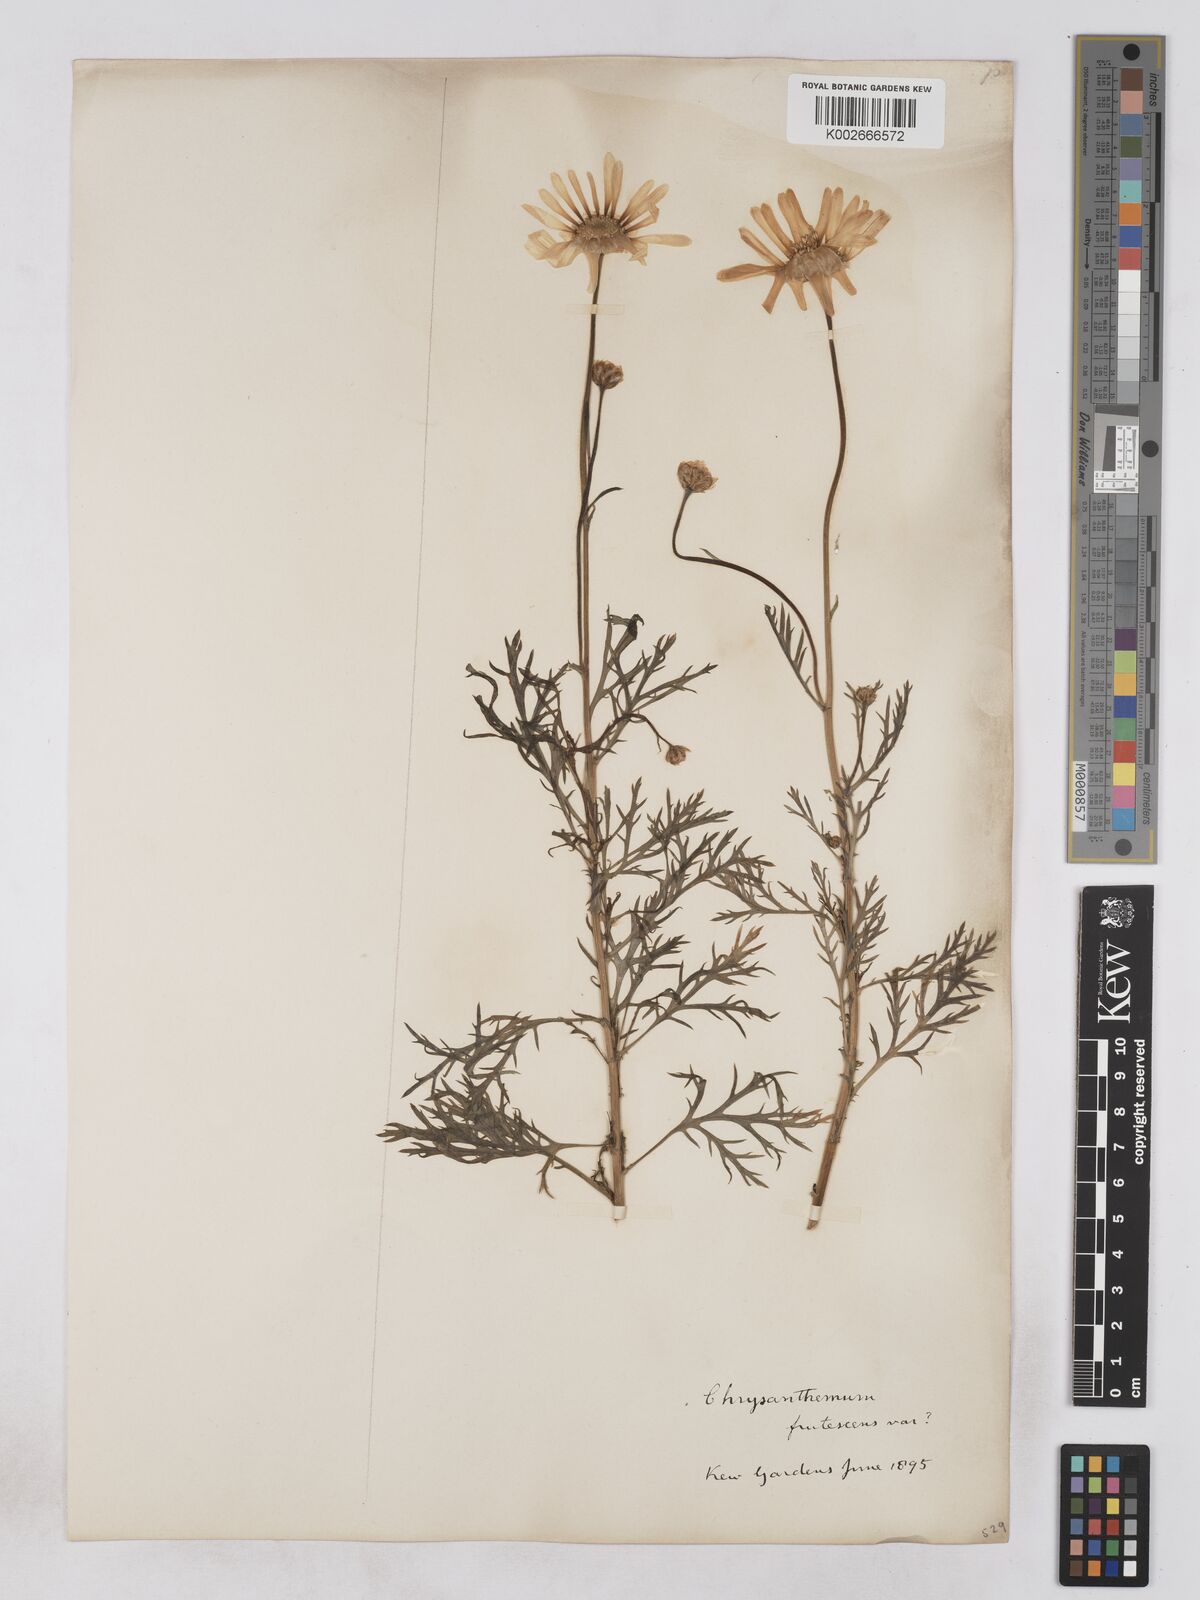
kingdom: Plantae
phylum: Tracheophyta
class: Magnoliopsida
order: Asterales
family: Asteraceae
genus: Argyranthemum
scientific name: Argyranthemum frutescens
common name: Paris daisy
